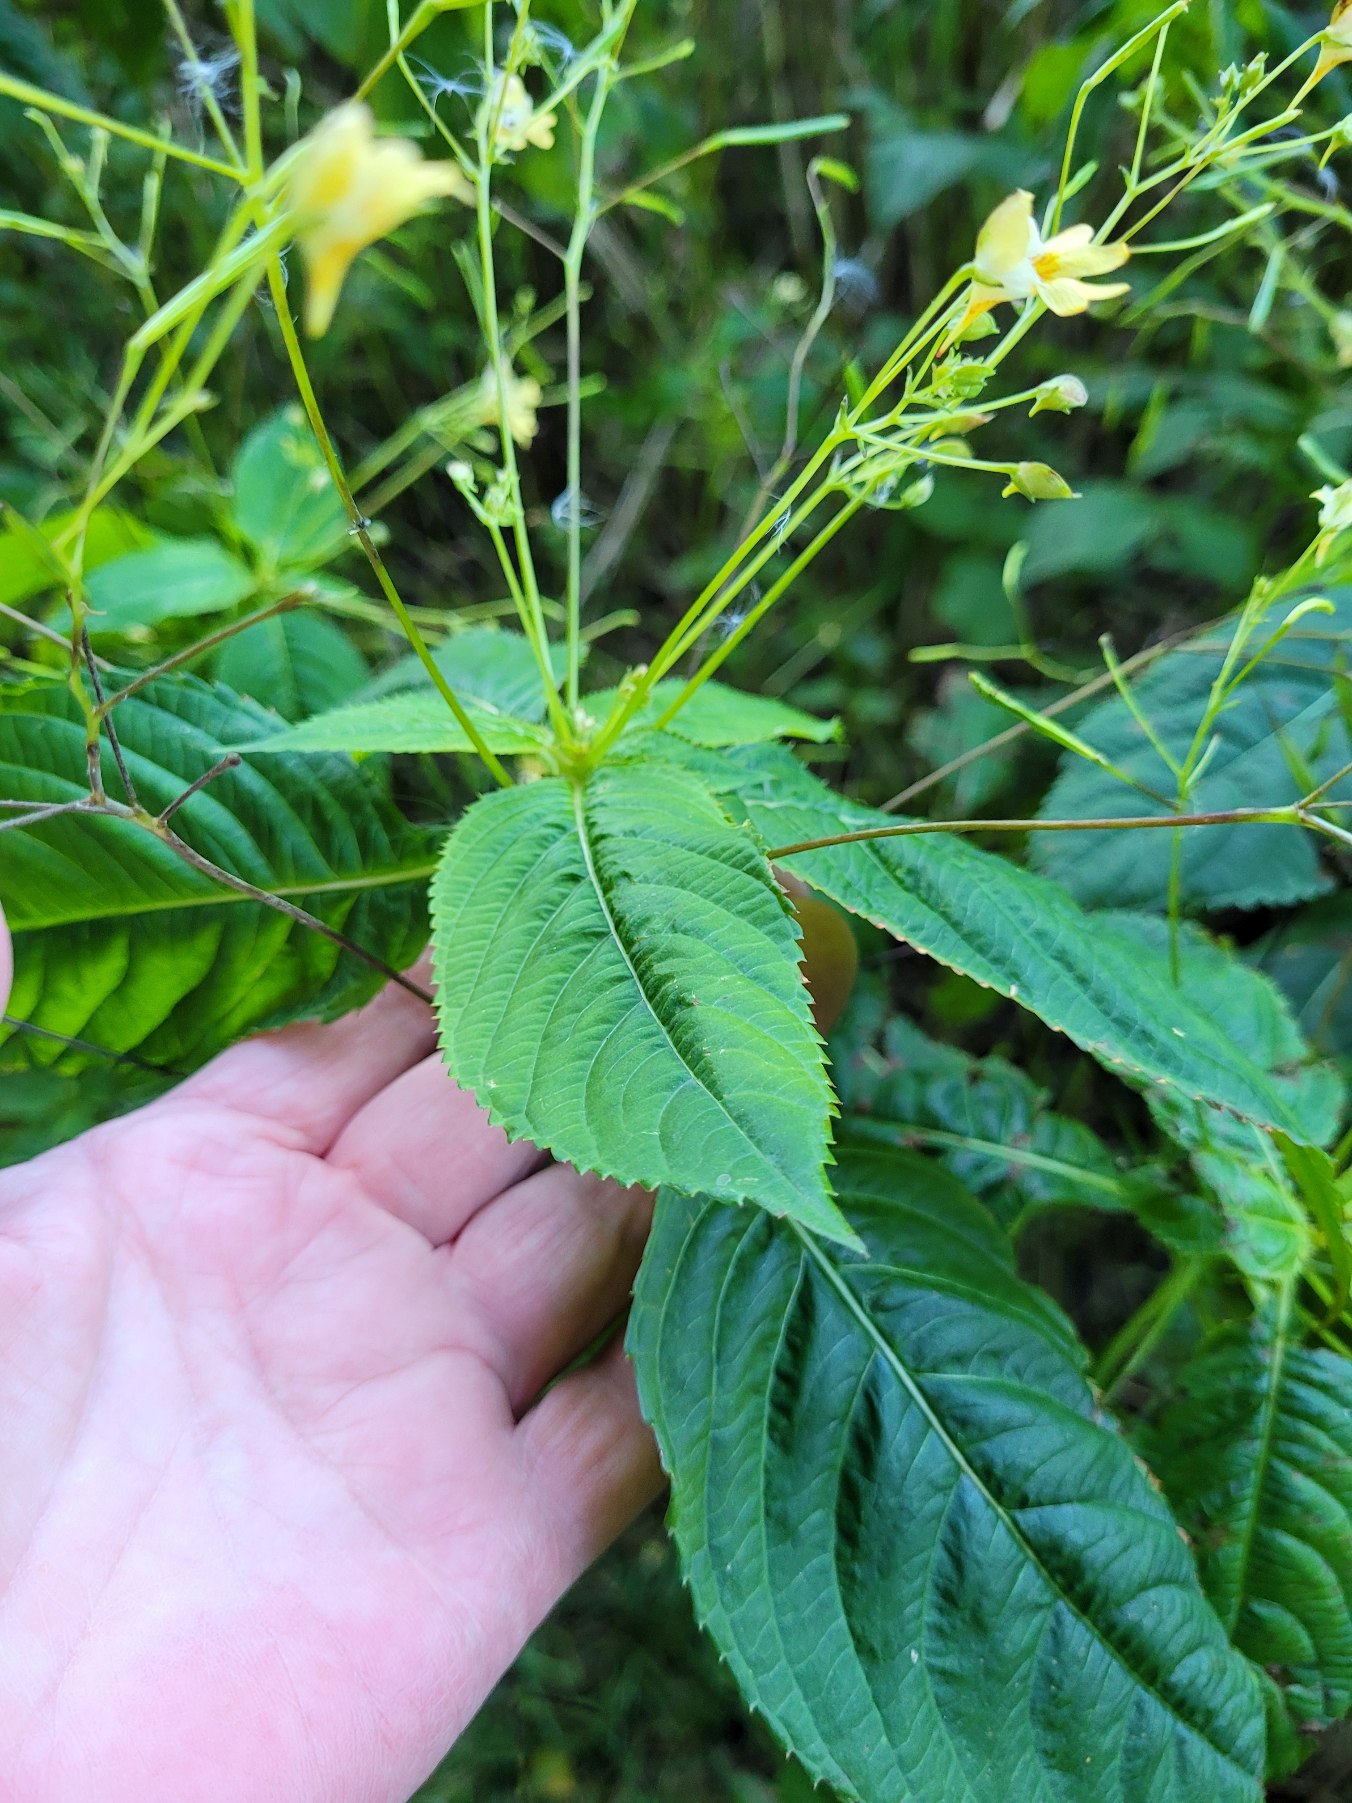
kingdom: Plantae
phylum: Tracheophyta
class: Magnoliopsida
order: Ericales
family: Balsaminaceae
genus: Impatiens
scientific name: Impatiens parviflora
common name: Småblomstret balsamin
